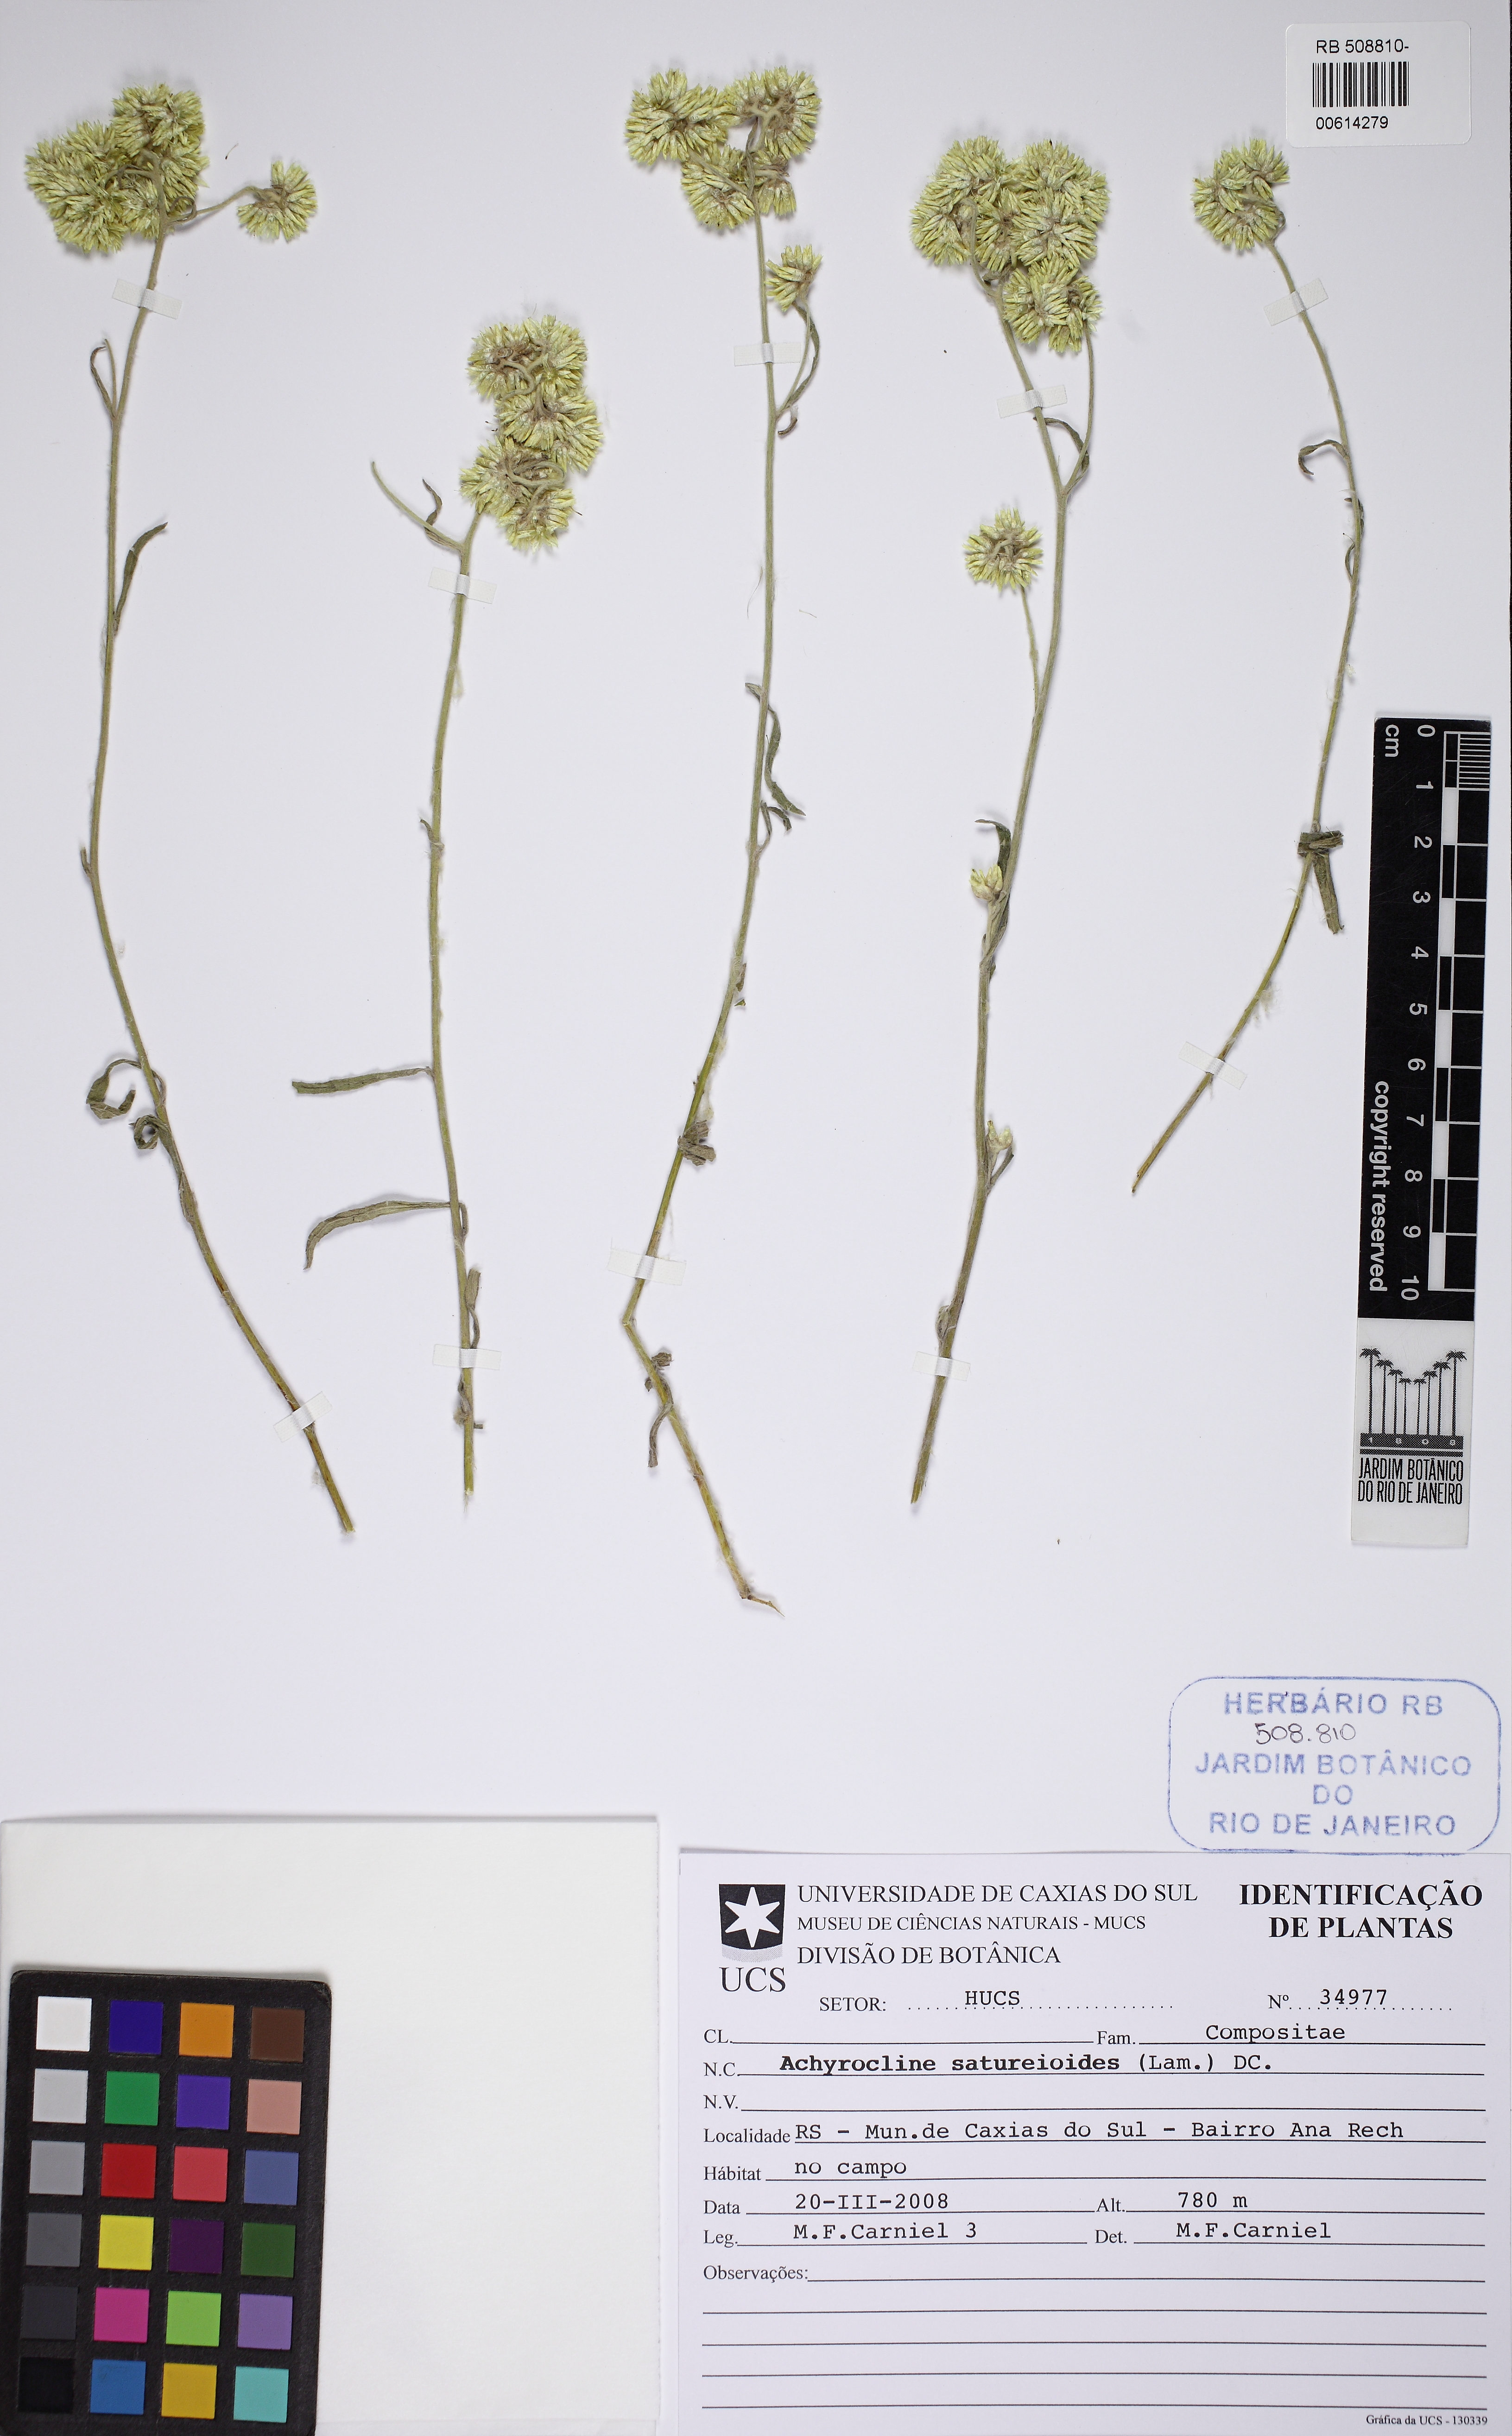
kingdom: Plantae
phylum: Tracheophyta
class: Magnoliopsida
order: Asterales
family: Asteraceae
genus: Achyrocline
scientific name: Achyrocline satureioides
